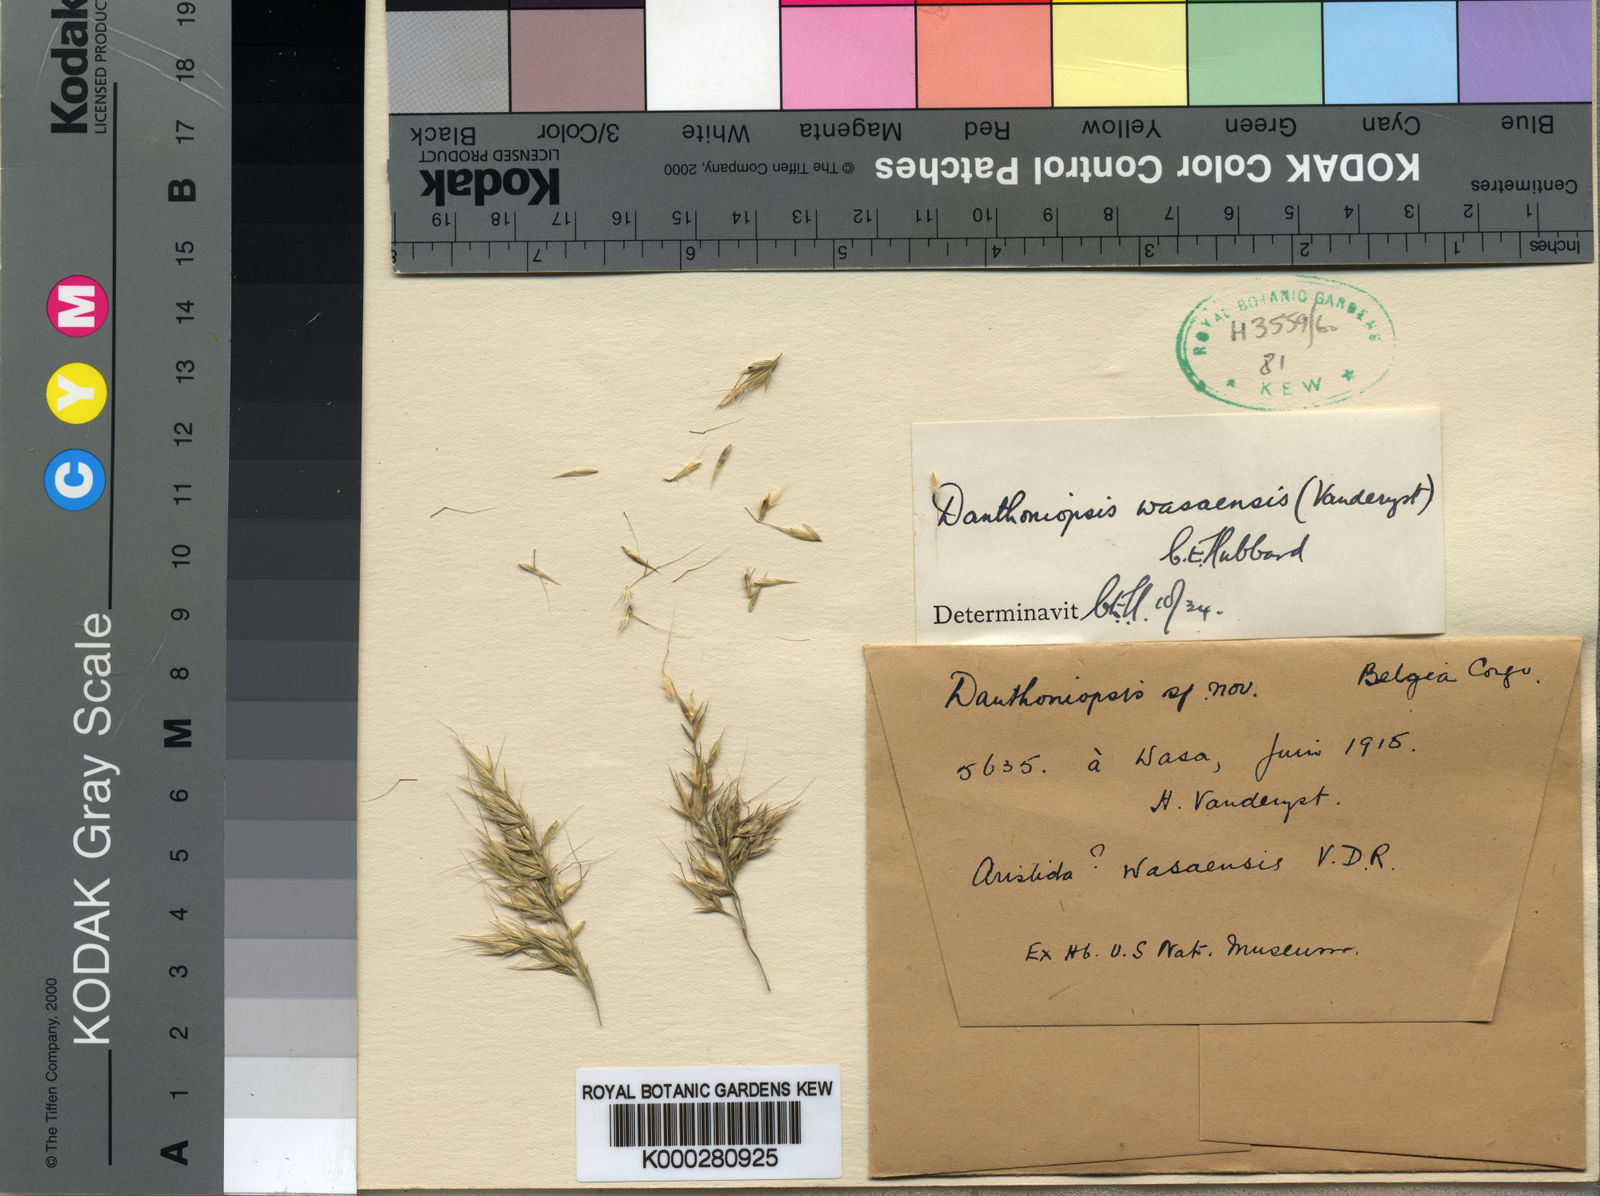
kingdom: Plantae
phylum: Tracheophyta
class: Liliopsida
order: Poales
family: Poaceae
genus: Danthoniopsis
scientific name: Danthoniopsis wasaensis
